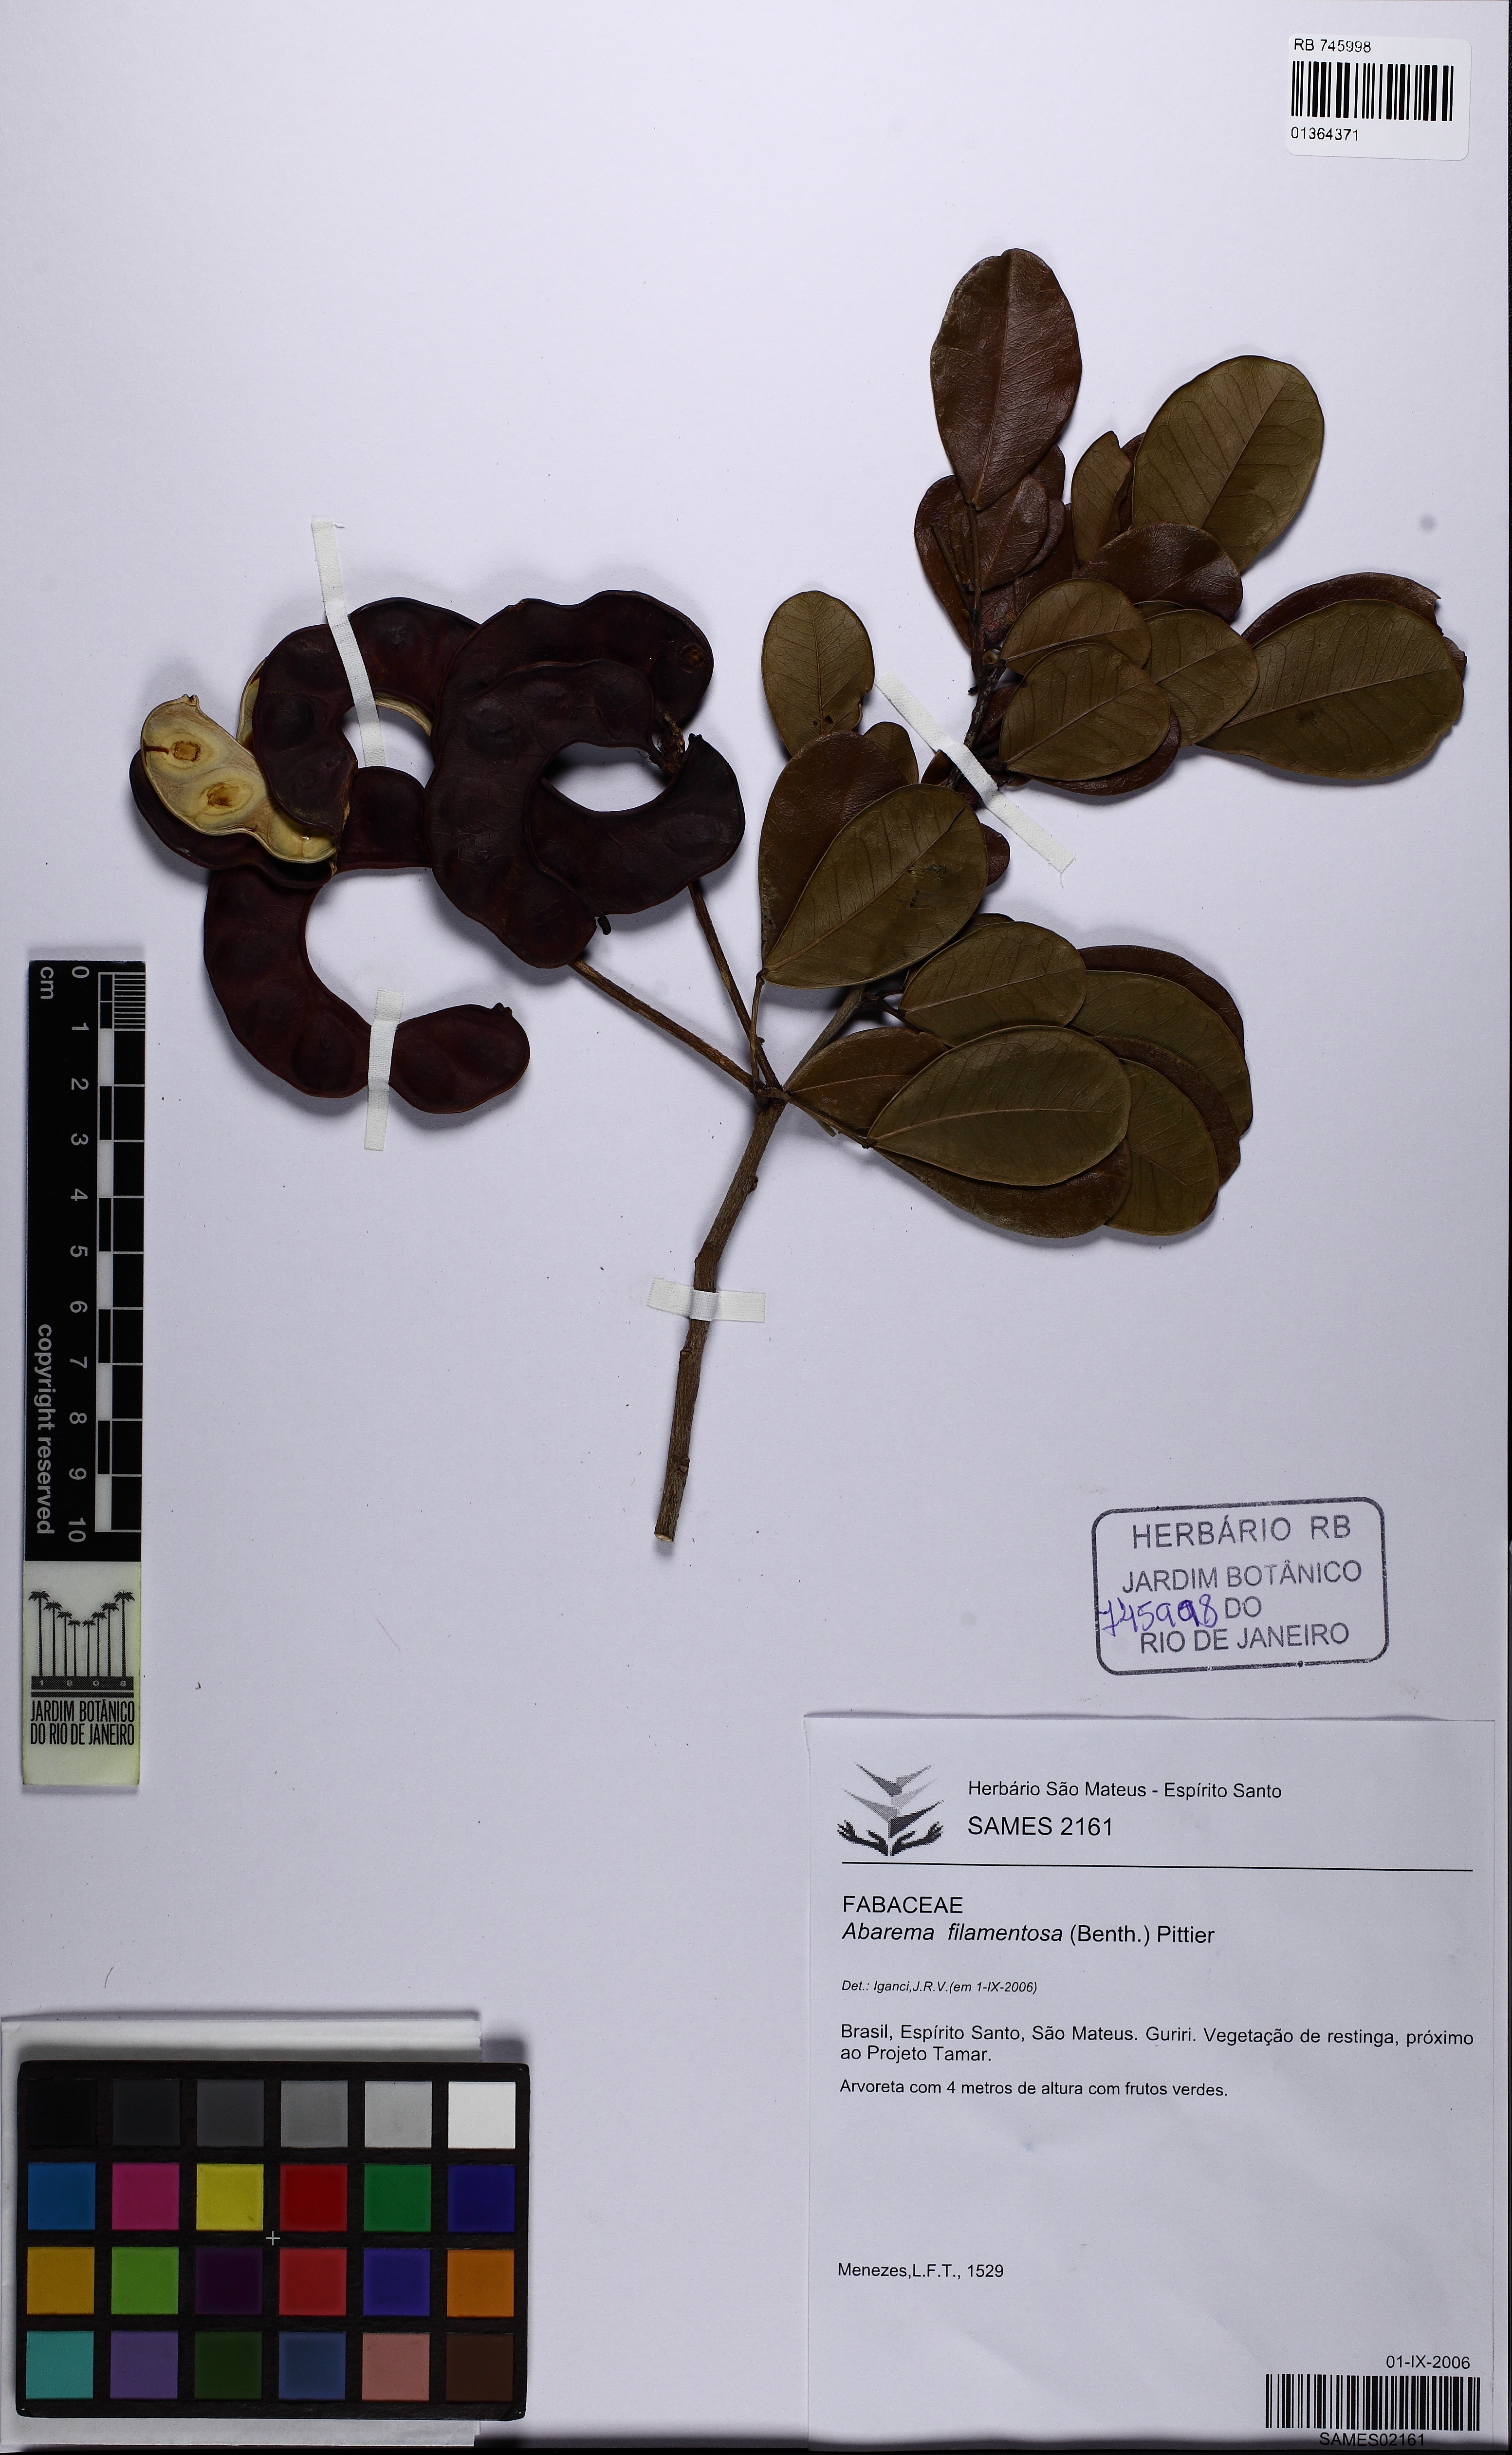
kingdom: Plantae
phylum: Tracheophyta
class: Magnoliopsida
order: Fabales
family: Fabaceae
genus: Jupunba
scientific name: Jupunba filamentosa
